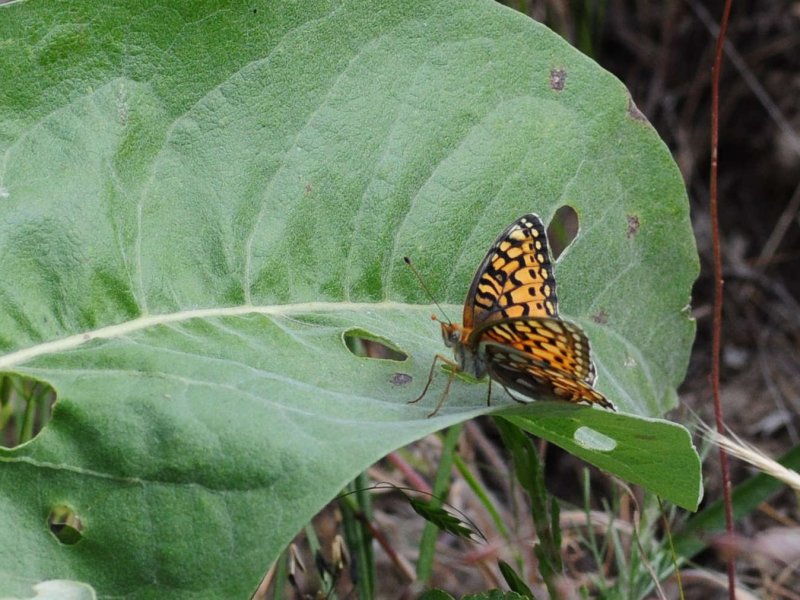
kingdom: Animalia
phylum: Arthropoda
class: Insecta
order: Lepidoptera
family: Nymphalidae
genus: Speyeria
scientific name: Speyeria callippe
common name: Callippe Fritillary
